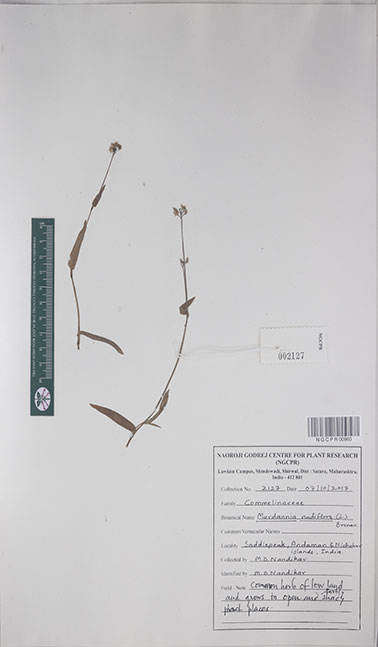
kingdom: Plantae
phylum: Tracheophyta
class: Liliopsida
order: Commelinales
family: Commelinaceae
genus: Murdannia
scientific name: Murdannia nudiflora
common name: Nakedstem dewflower
